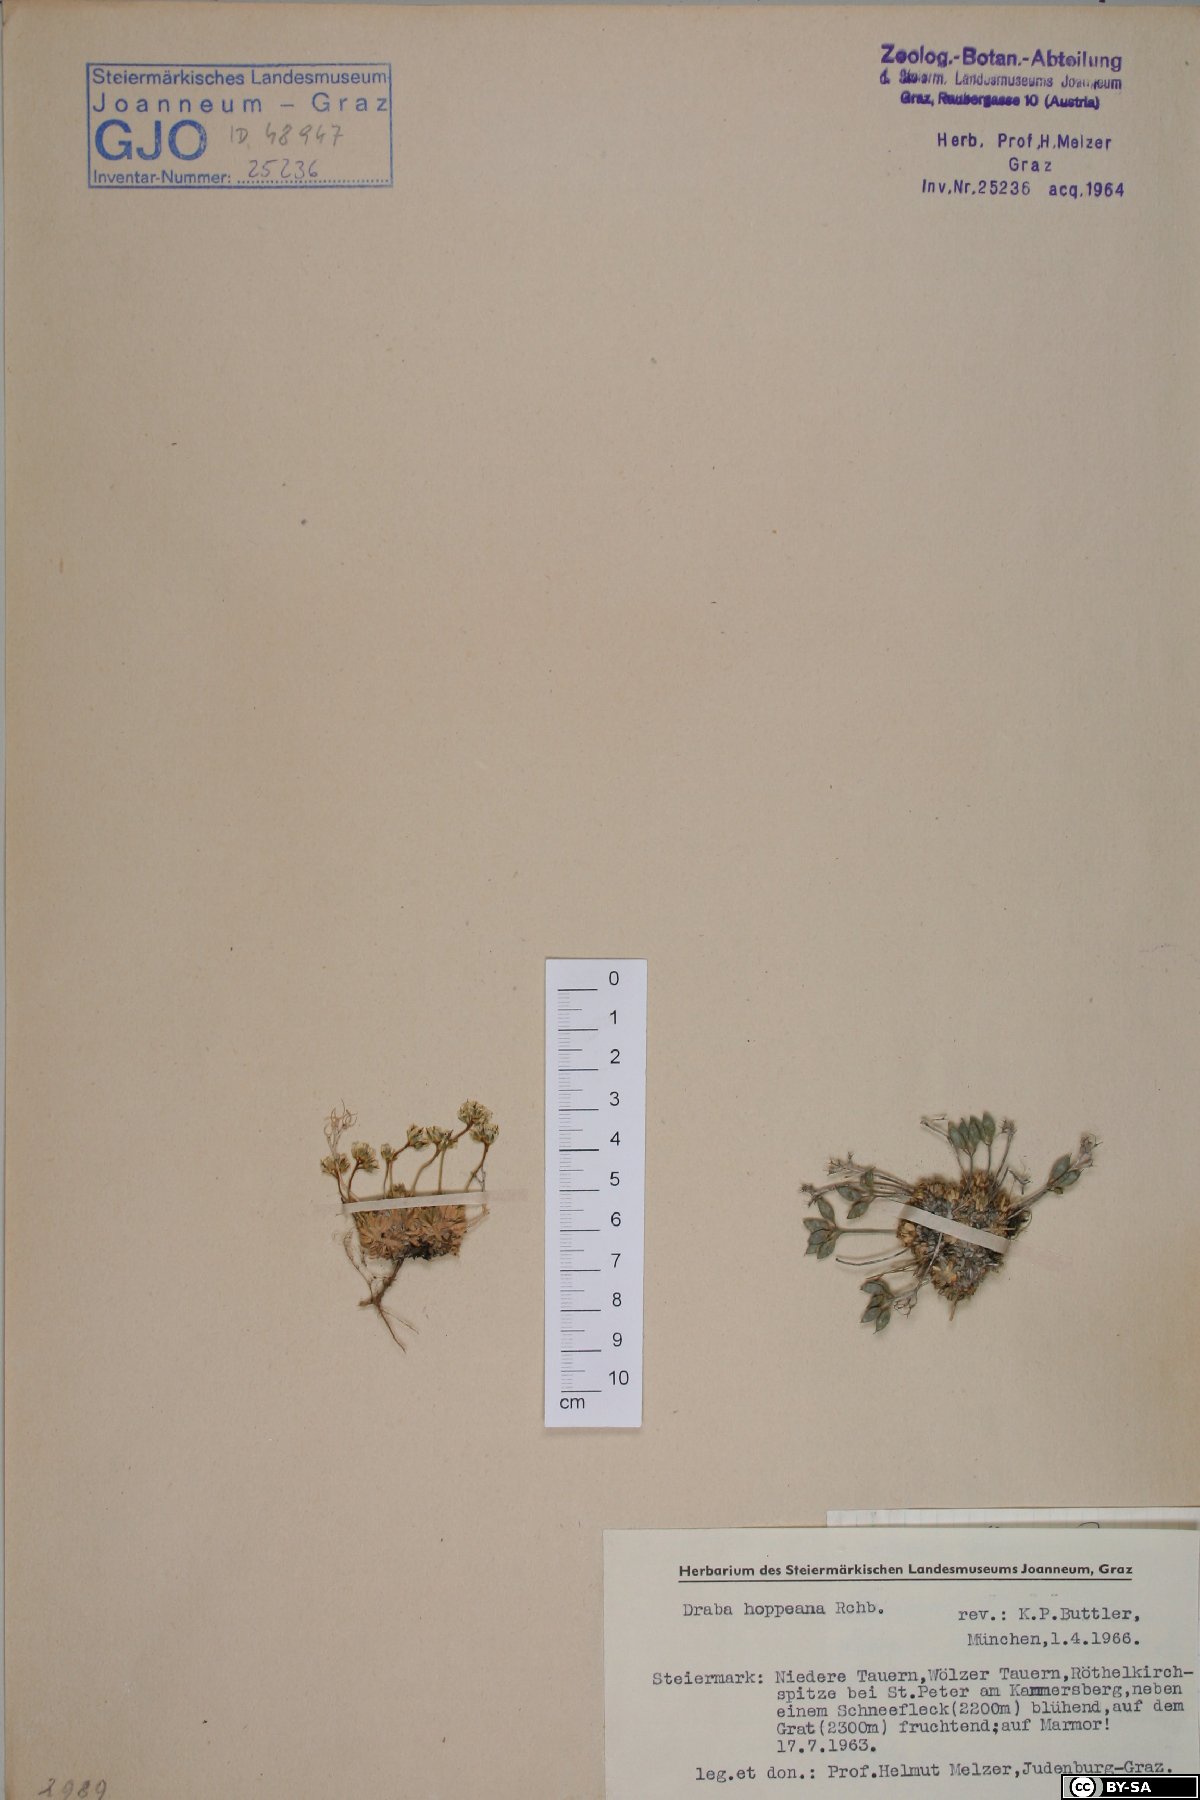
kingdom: Plantae
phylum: Tracheophyta
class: Magnoliopsida
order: Brassicales
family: Brassicaceae
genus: Draba
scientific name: Draba hoppeana
